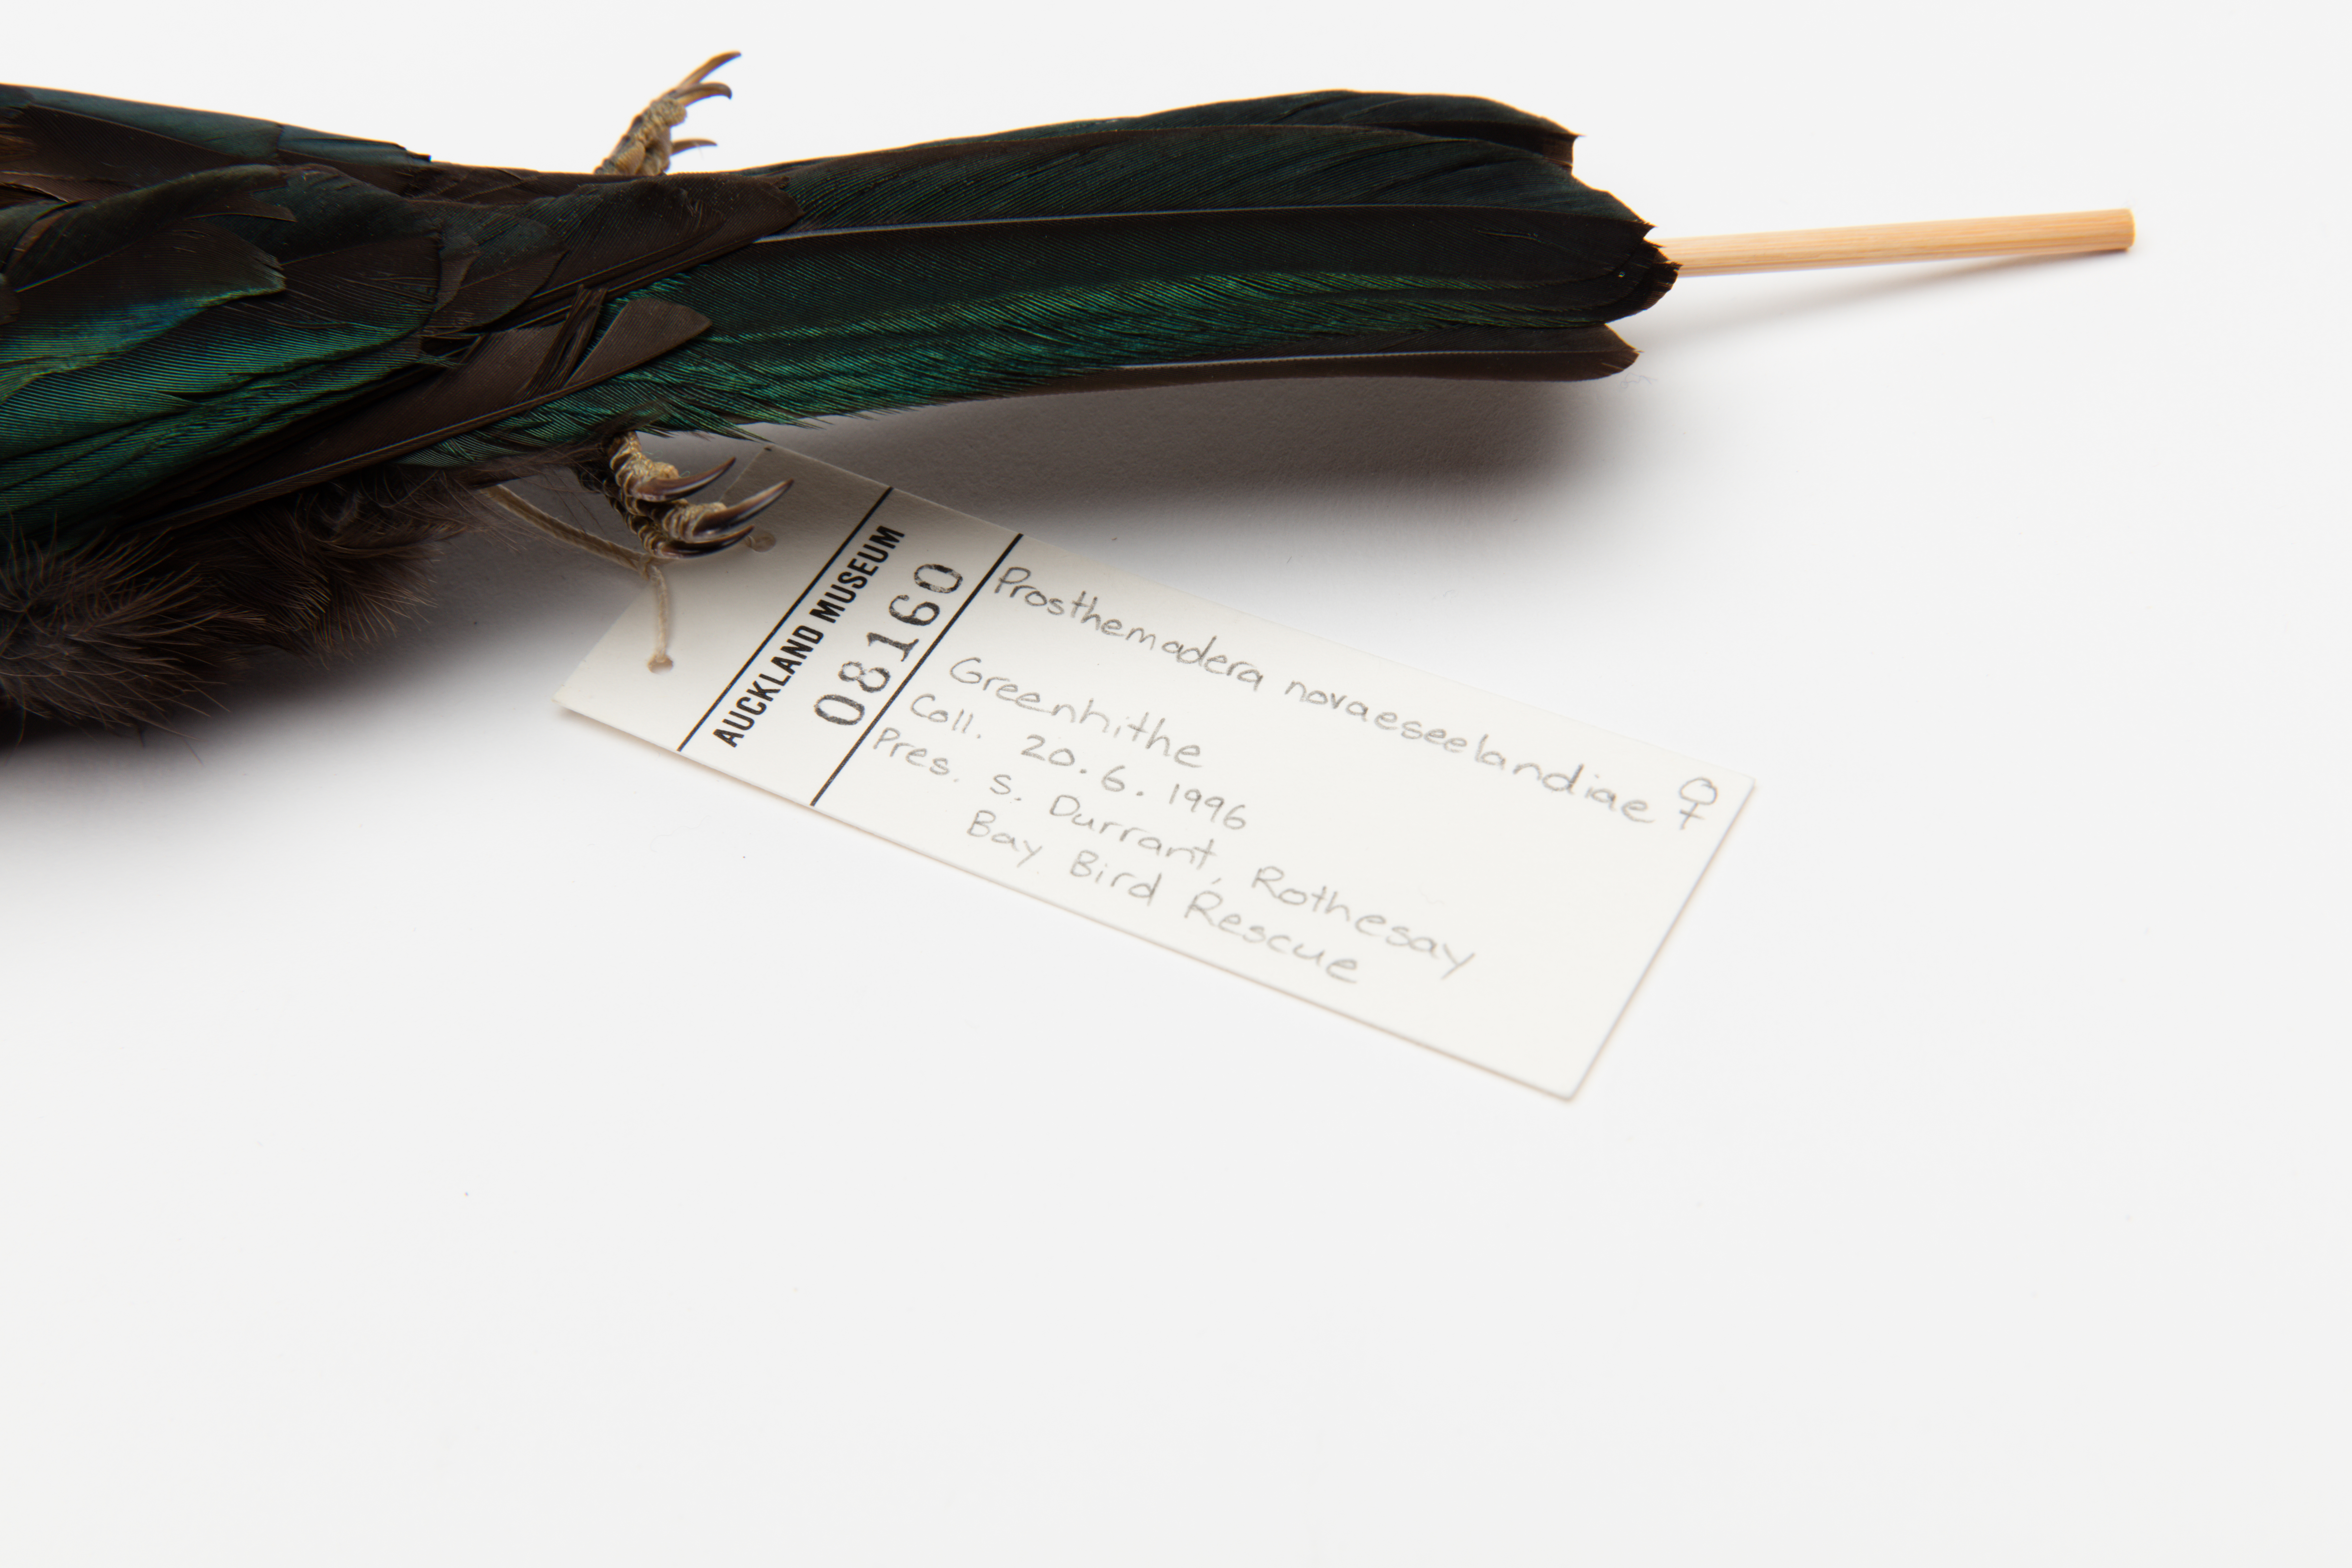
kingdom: Animalia
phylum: Chordata
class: Aves
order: Passeriformes
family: Meliphagidae
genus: Prosthemadera
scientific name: Prosthemadera novaeseelandiae
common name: Tui
